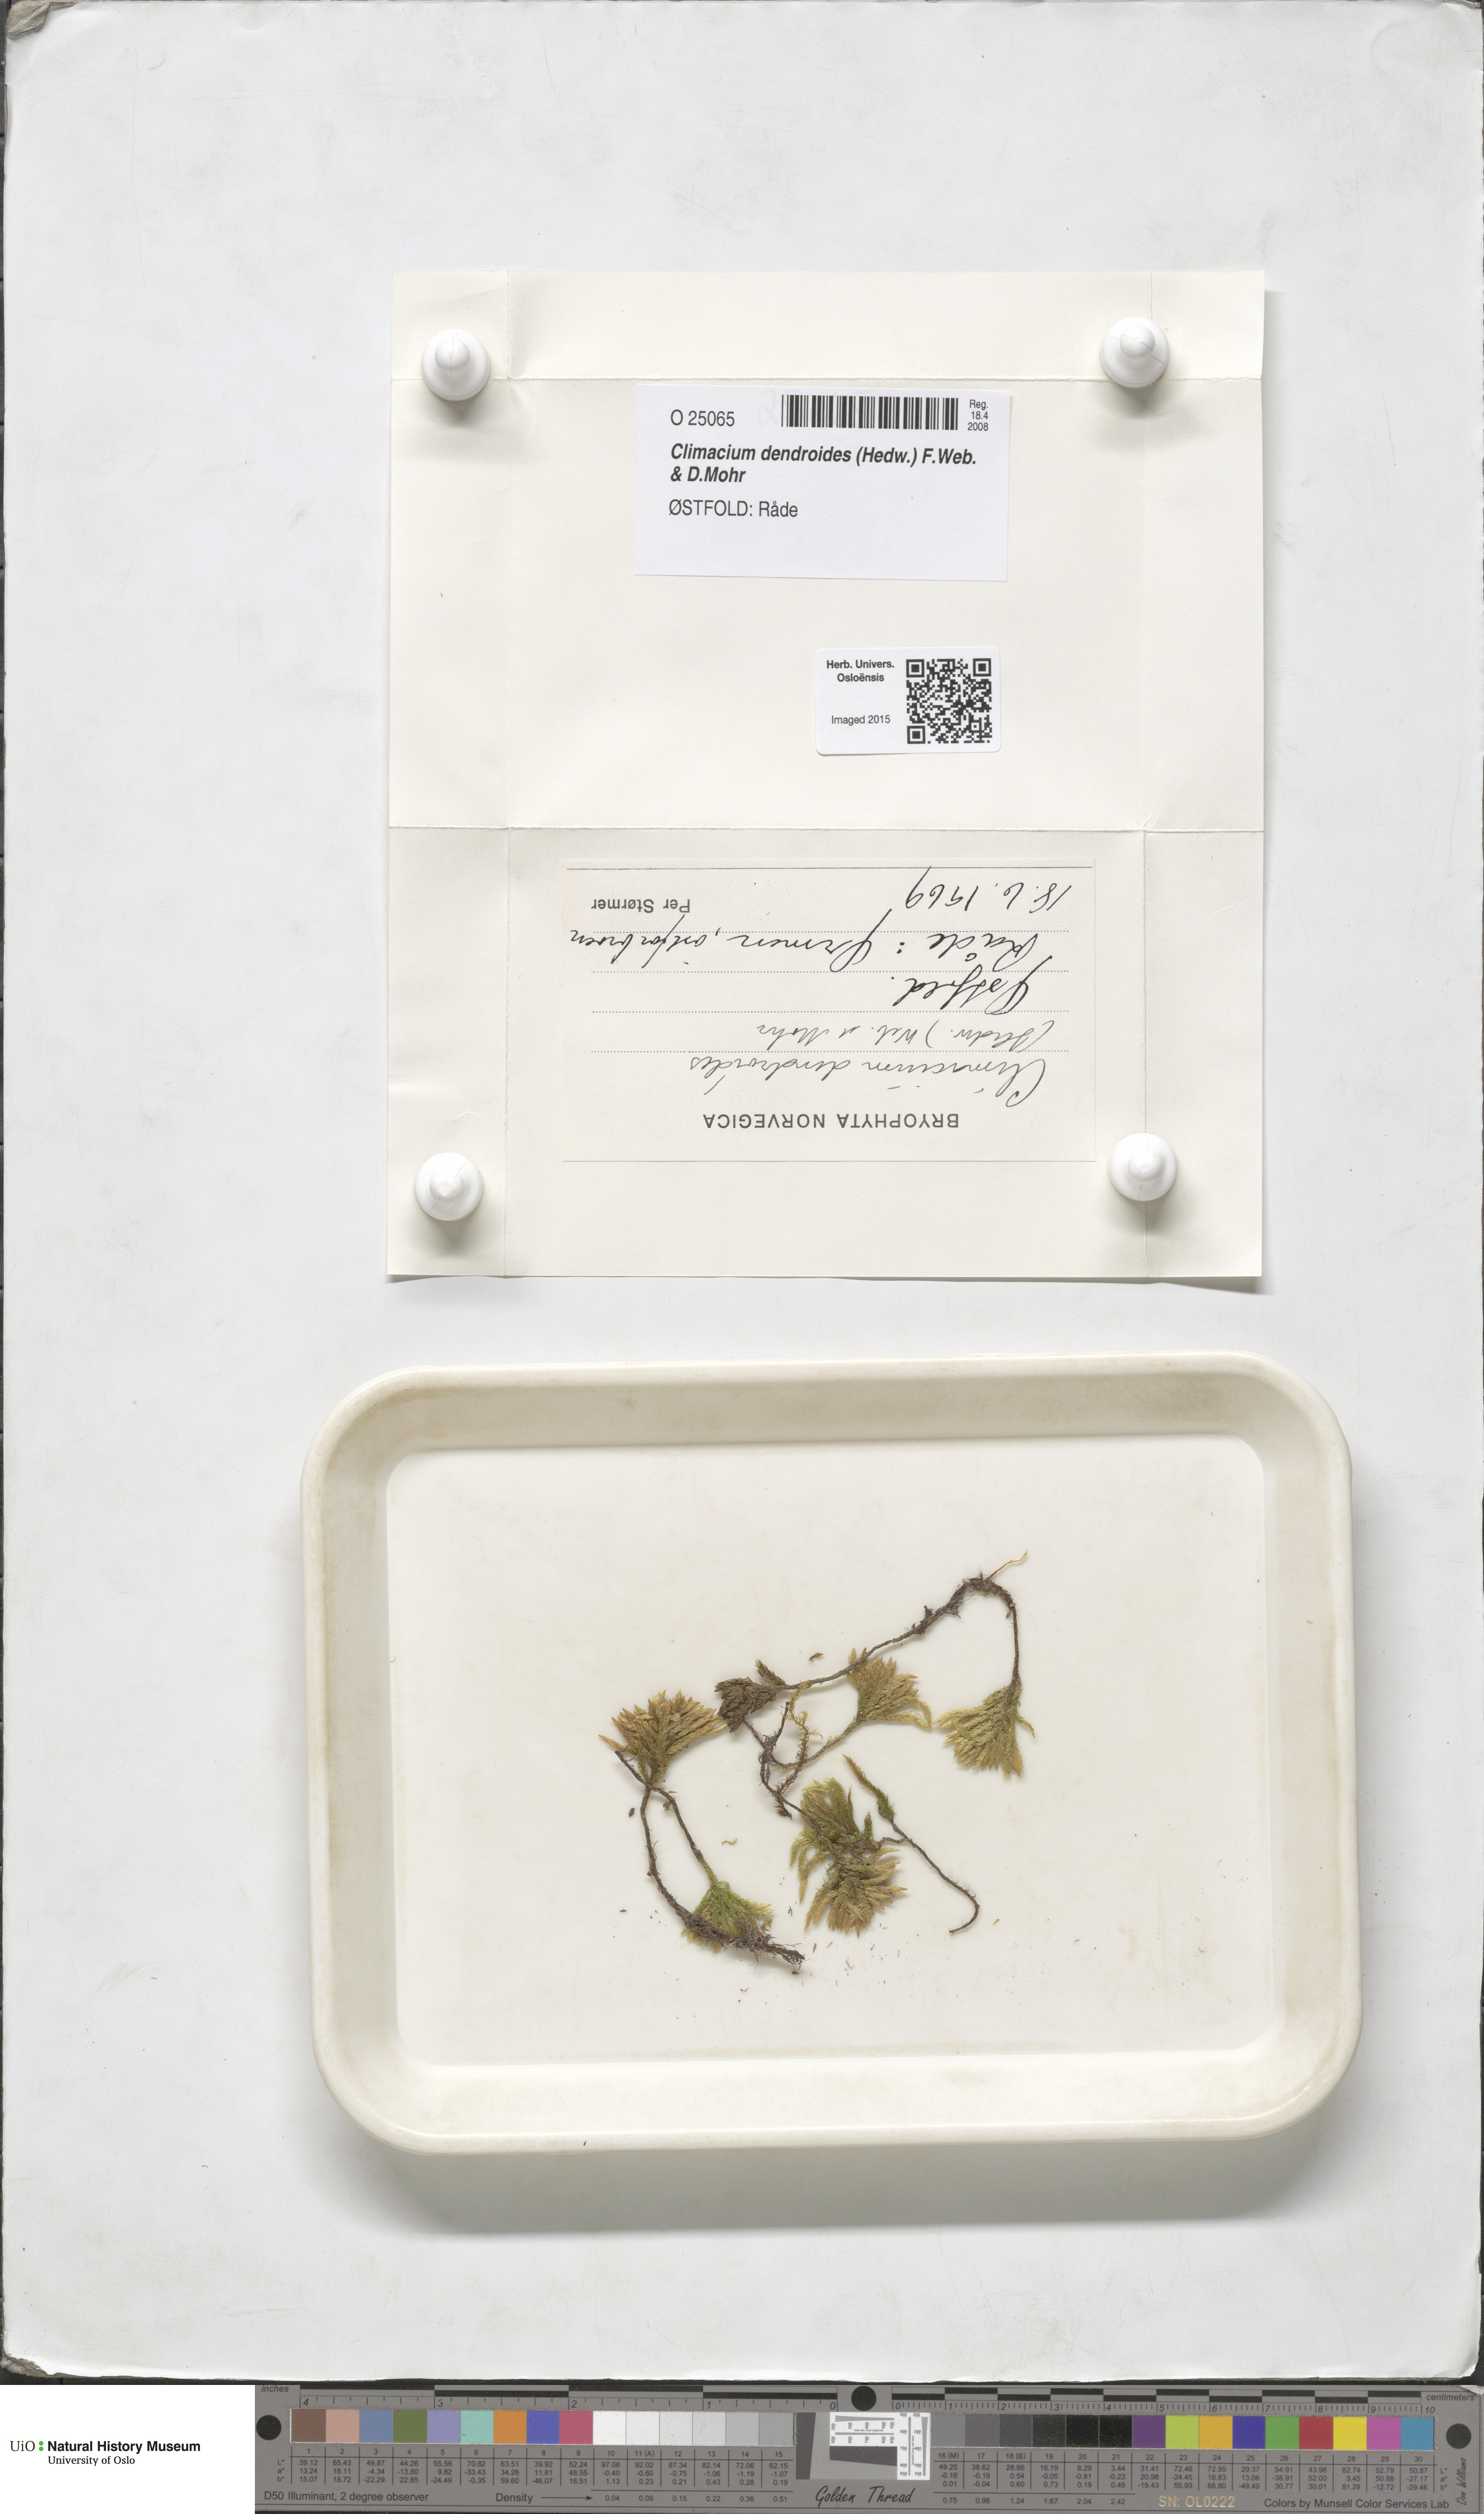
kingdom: Plantae
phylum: Bryophyta
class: Bryopsida
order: Hypnales
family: Climaciaceae
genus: Climacium
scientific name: Climacium dendroides
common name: Northern tree moss
